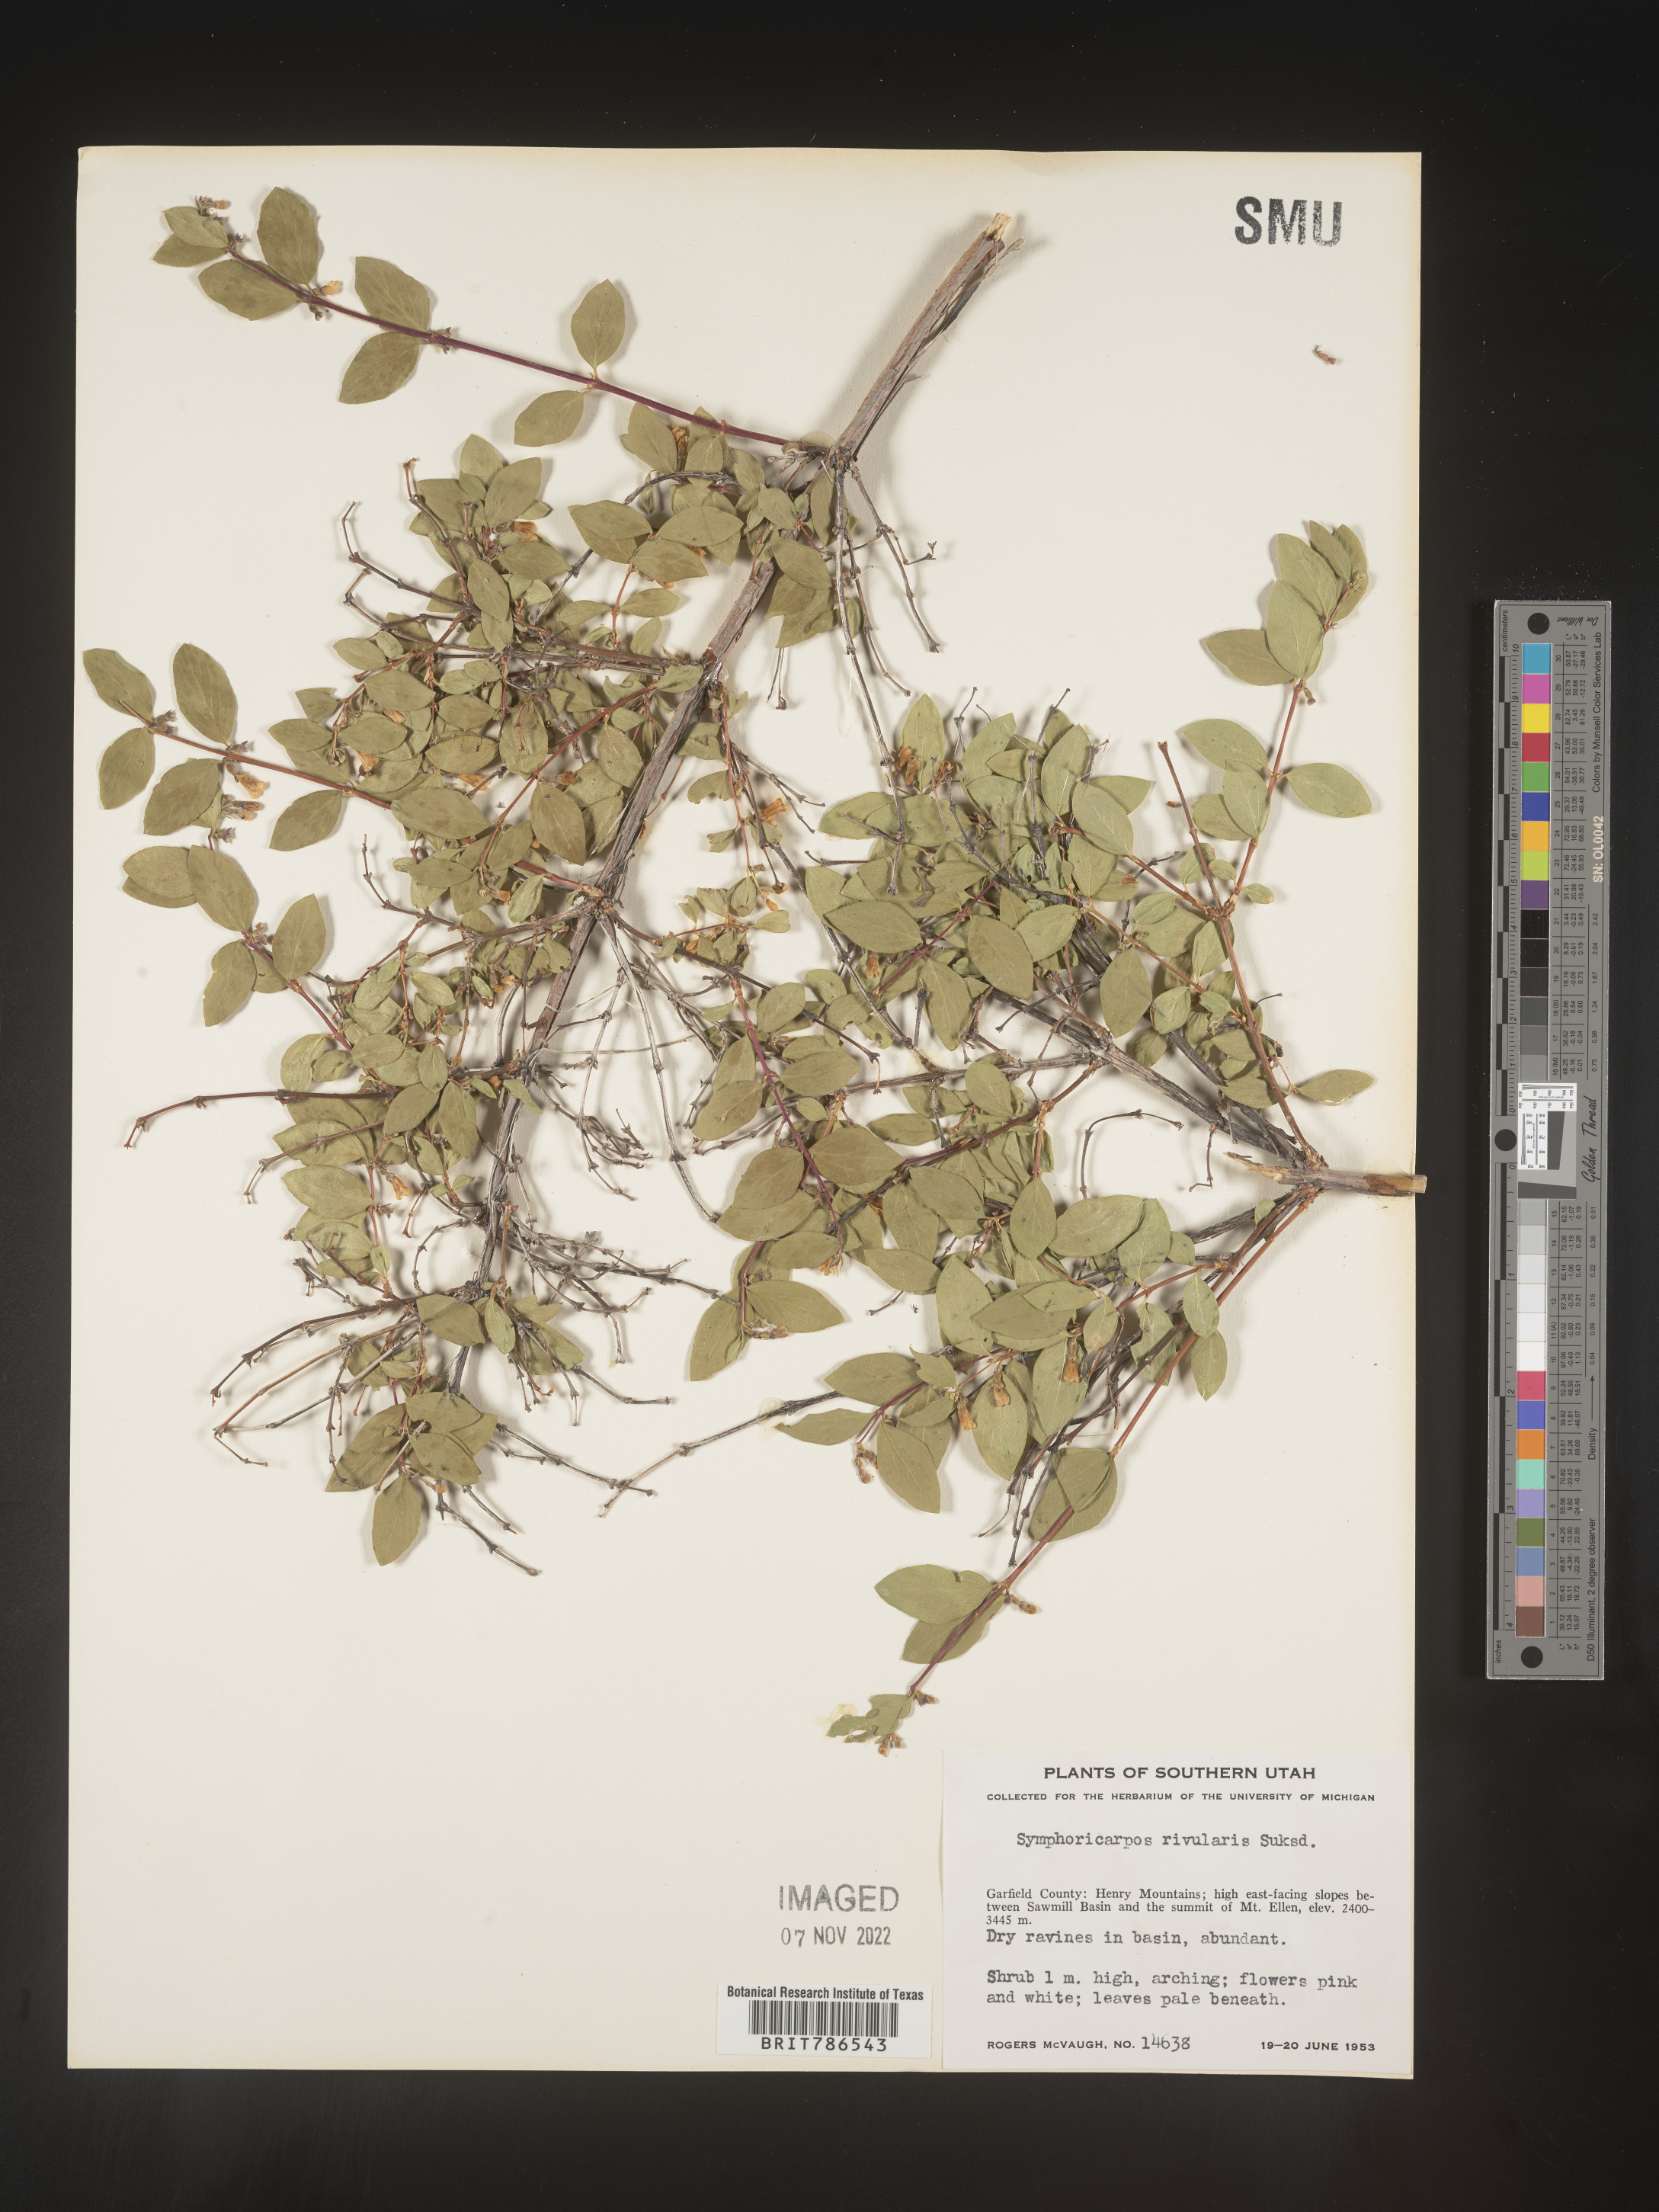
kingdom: Plantae
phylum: Tracheophyta
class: Magnoliopsida
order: Dipsacales
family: Caprifoliaceae
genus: Symphoricarpos
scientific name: Symphoricarpos
